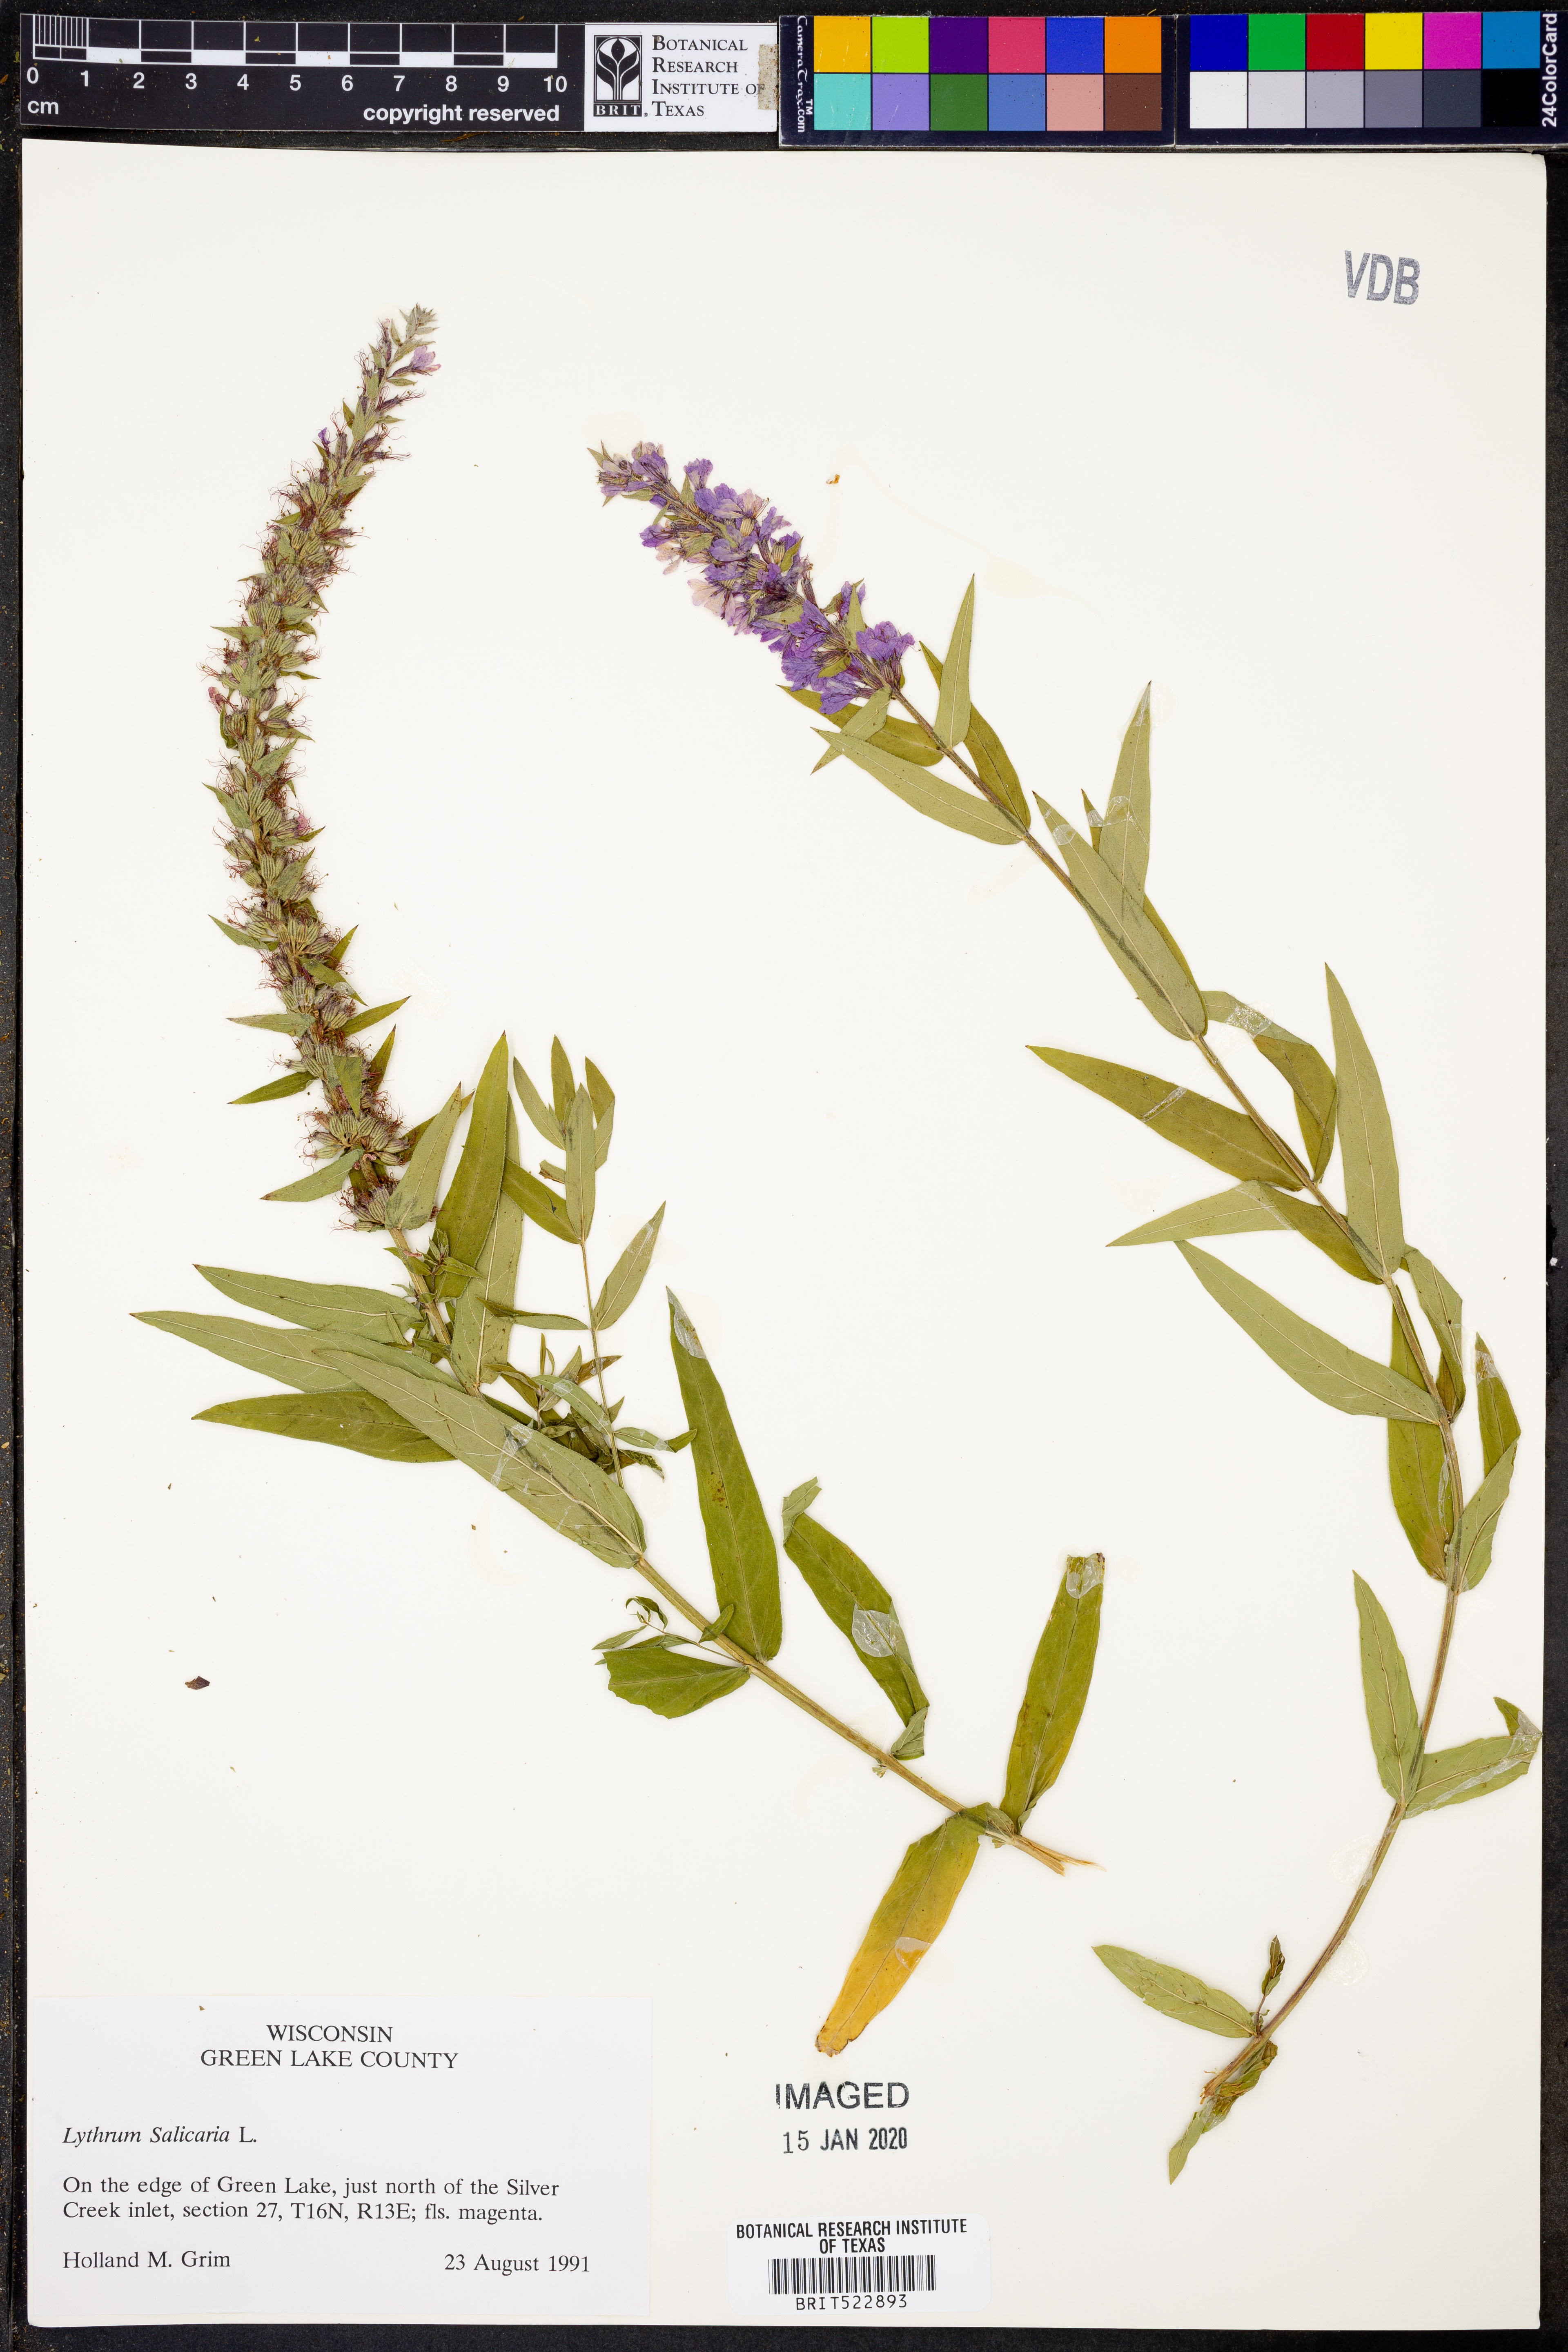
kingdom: Plantae
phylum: Tracheophyta
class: Magnoliopsida
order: Myrtales
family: Lythraceae
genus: Lythrum
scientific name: Lythrum salicaria
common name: Purple loosestrife
